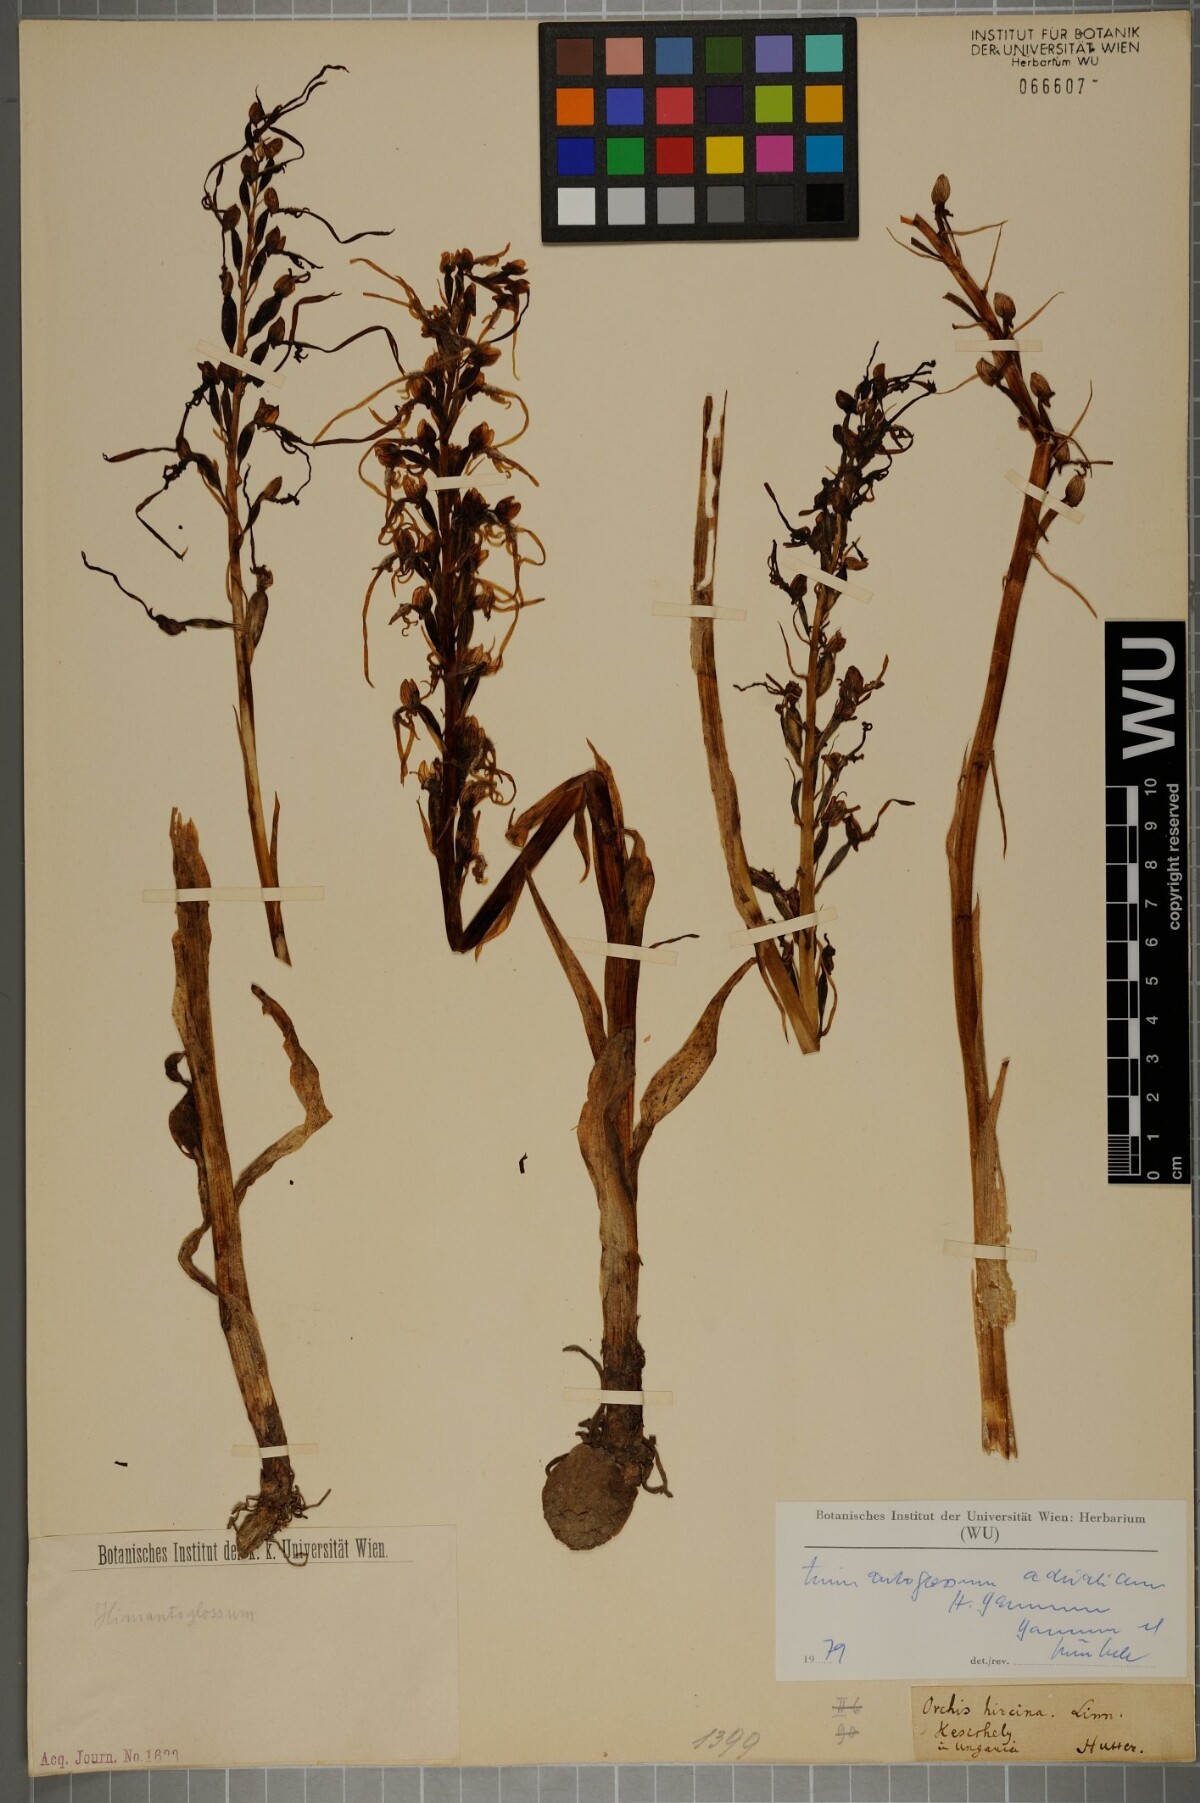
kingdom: Plantae
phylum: Tracheophyta
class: Liliopsida
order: Asparagales
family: Orchidaceae
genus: Himantoglossum
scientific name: Himantoglossum adriaticum
